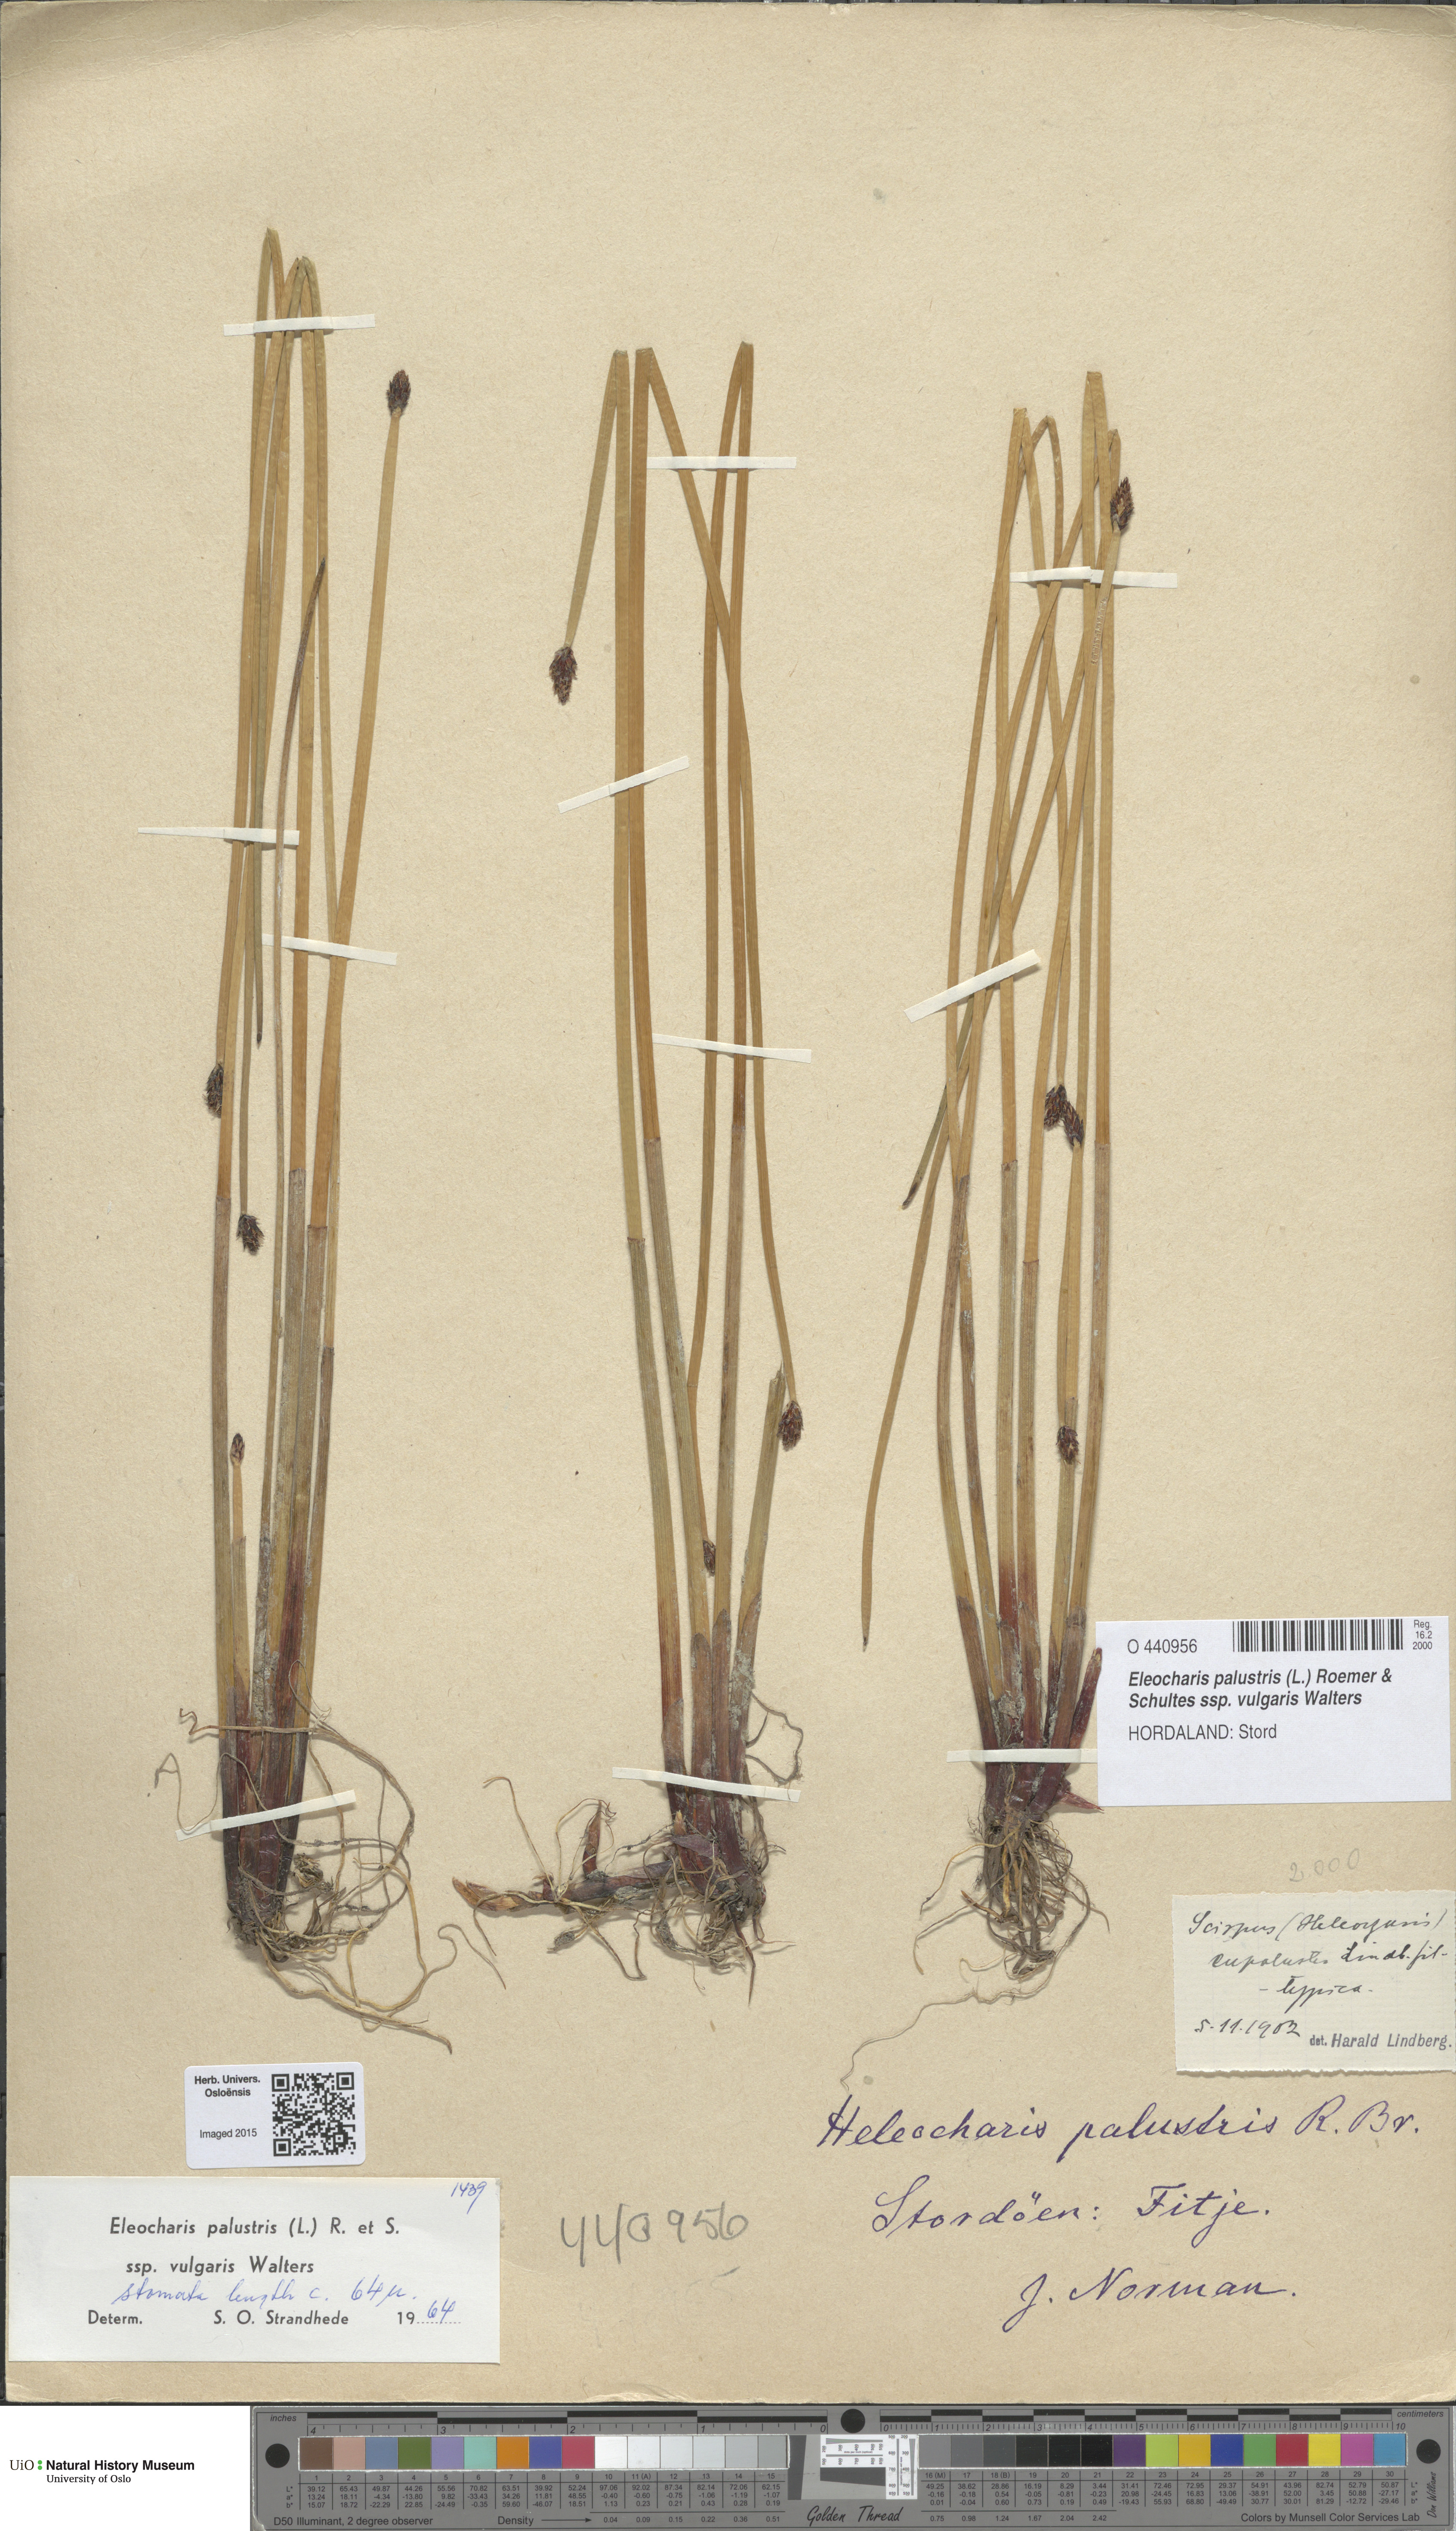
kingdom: Plantae
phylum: Tracheophyta
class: Liliopsida
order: Poales
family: Cyperaceae
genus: Eleocharis
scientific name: Eleocharis palustris
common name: Common spike-rush
